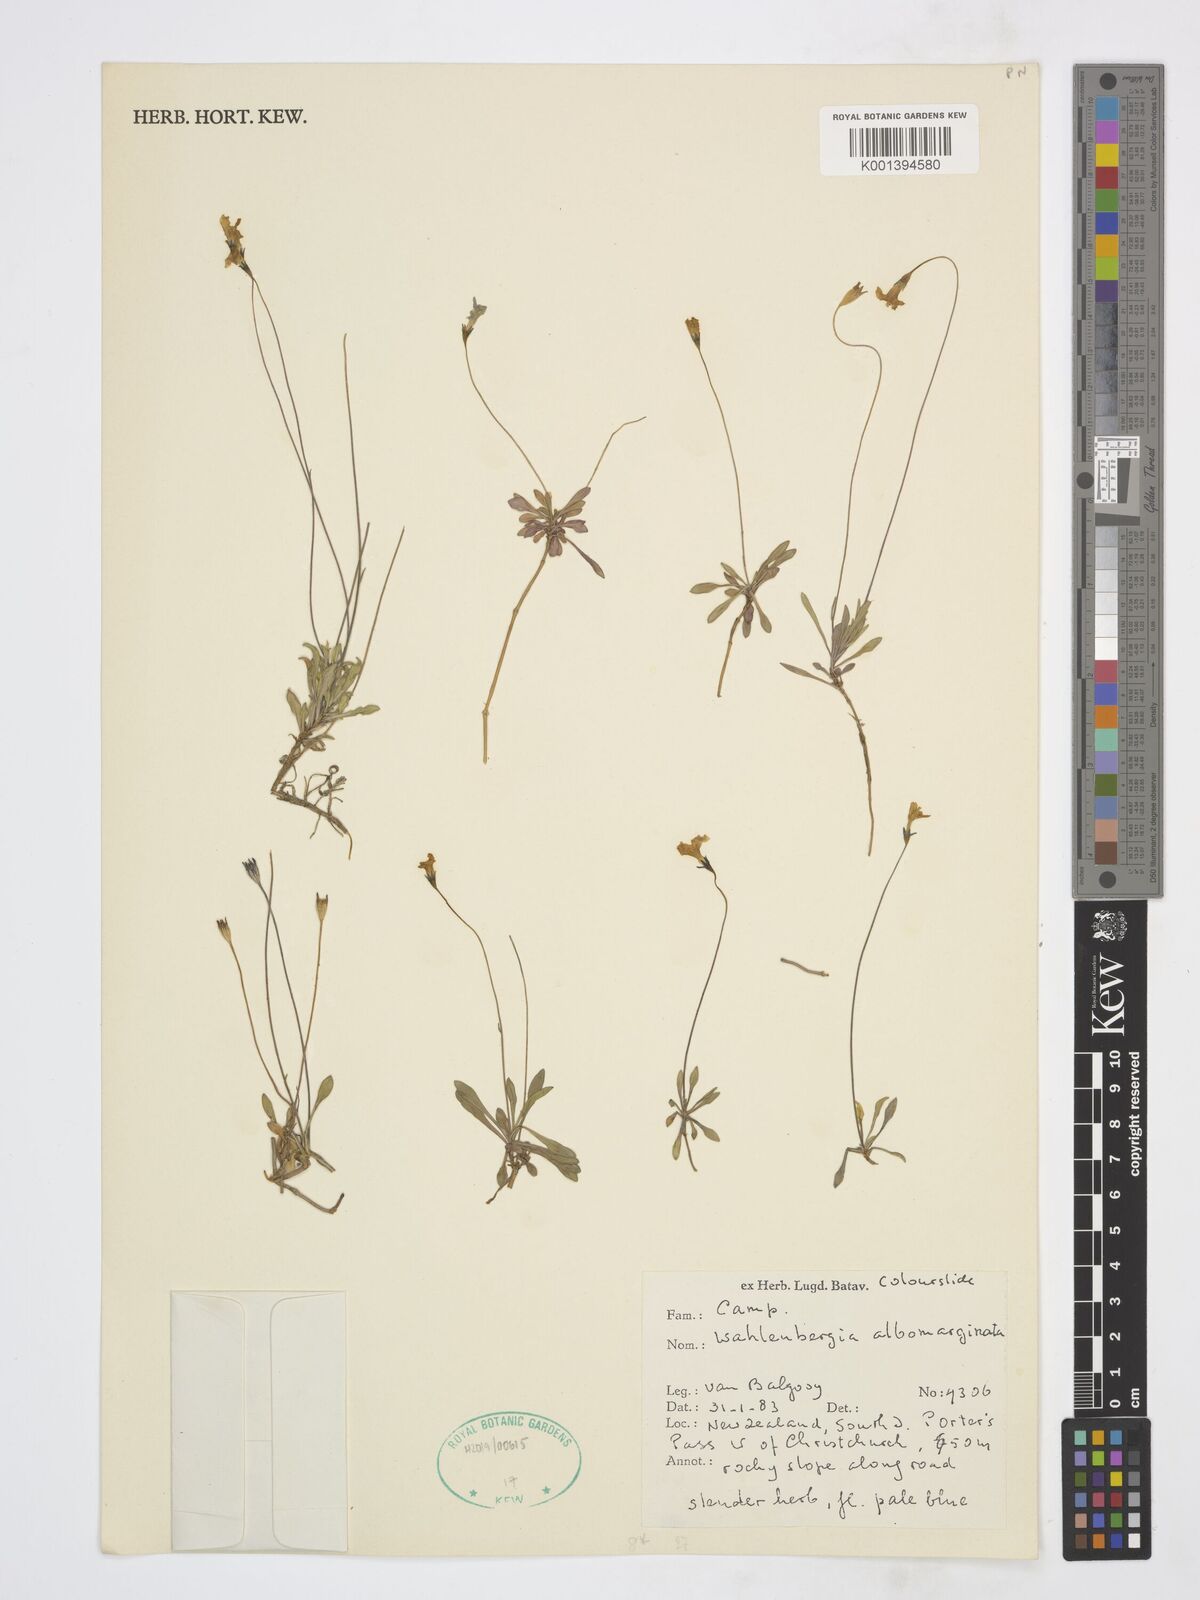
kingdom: Plantae
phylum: Tracheophyta
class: Magnoliopsida
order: Asterales
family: Campanulaceae
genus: Wahlenbergia
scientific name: Wahlenbergia albomarginata
